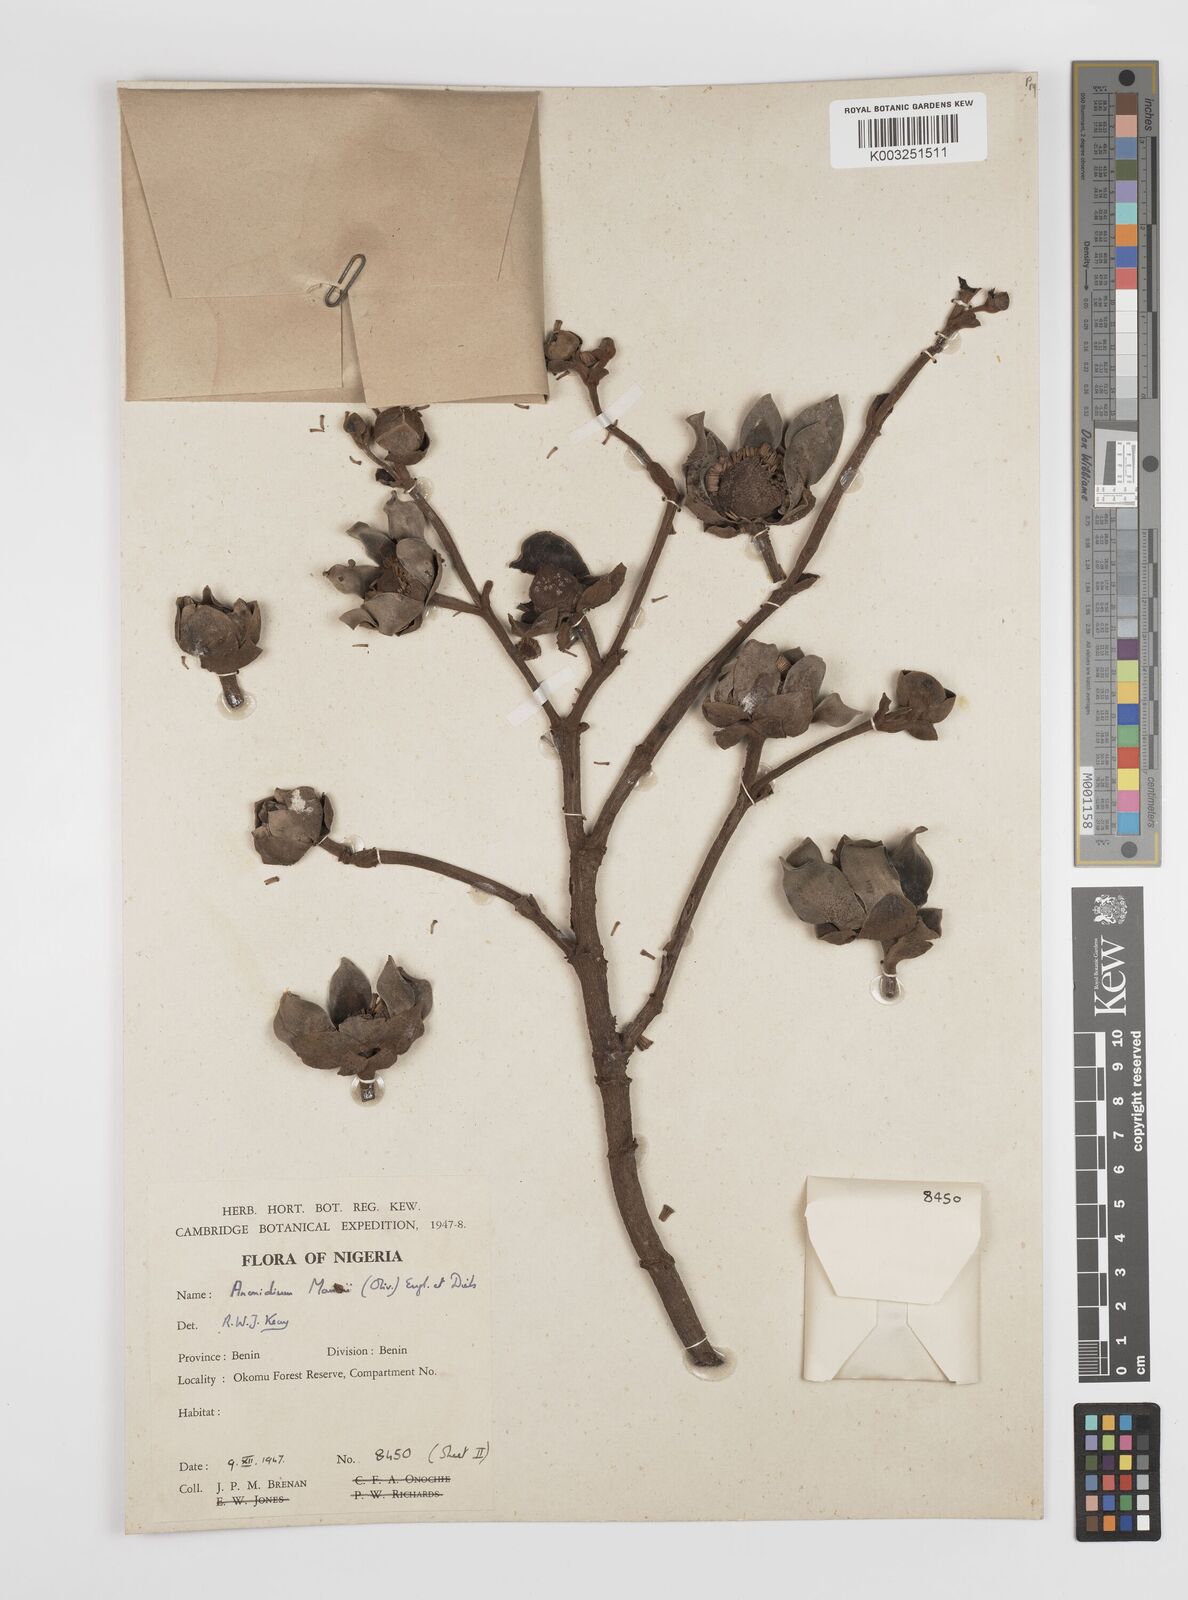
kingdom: Plantae
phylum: Tracheophyta
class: Magnoliopsida
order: Magnoliales
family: Annonaceae
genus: Anonidium
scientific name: Anonidium mannii
